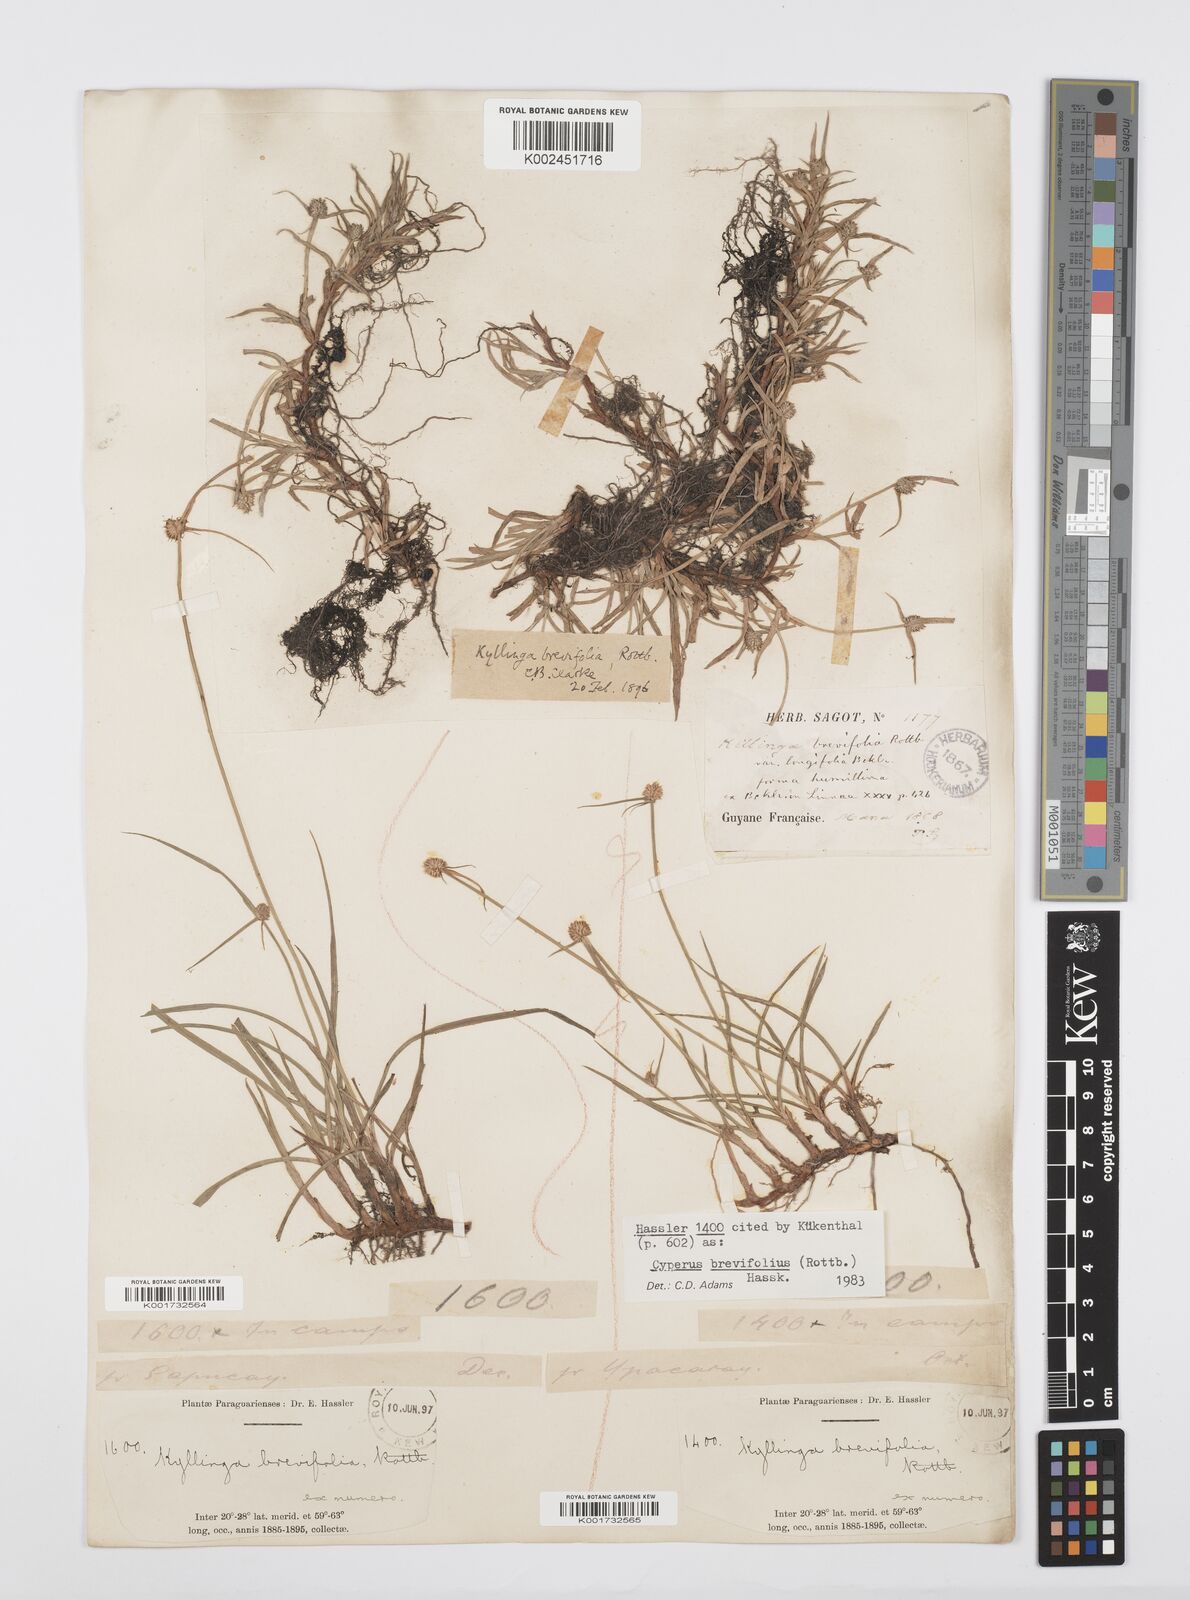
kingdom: Plantae
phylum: Tracheophyta
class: Liliopsida
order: Poales
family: Cyperaceae
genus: Cyperus
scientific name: Cyperus brevifolius
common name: Globe kyllinga
